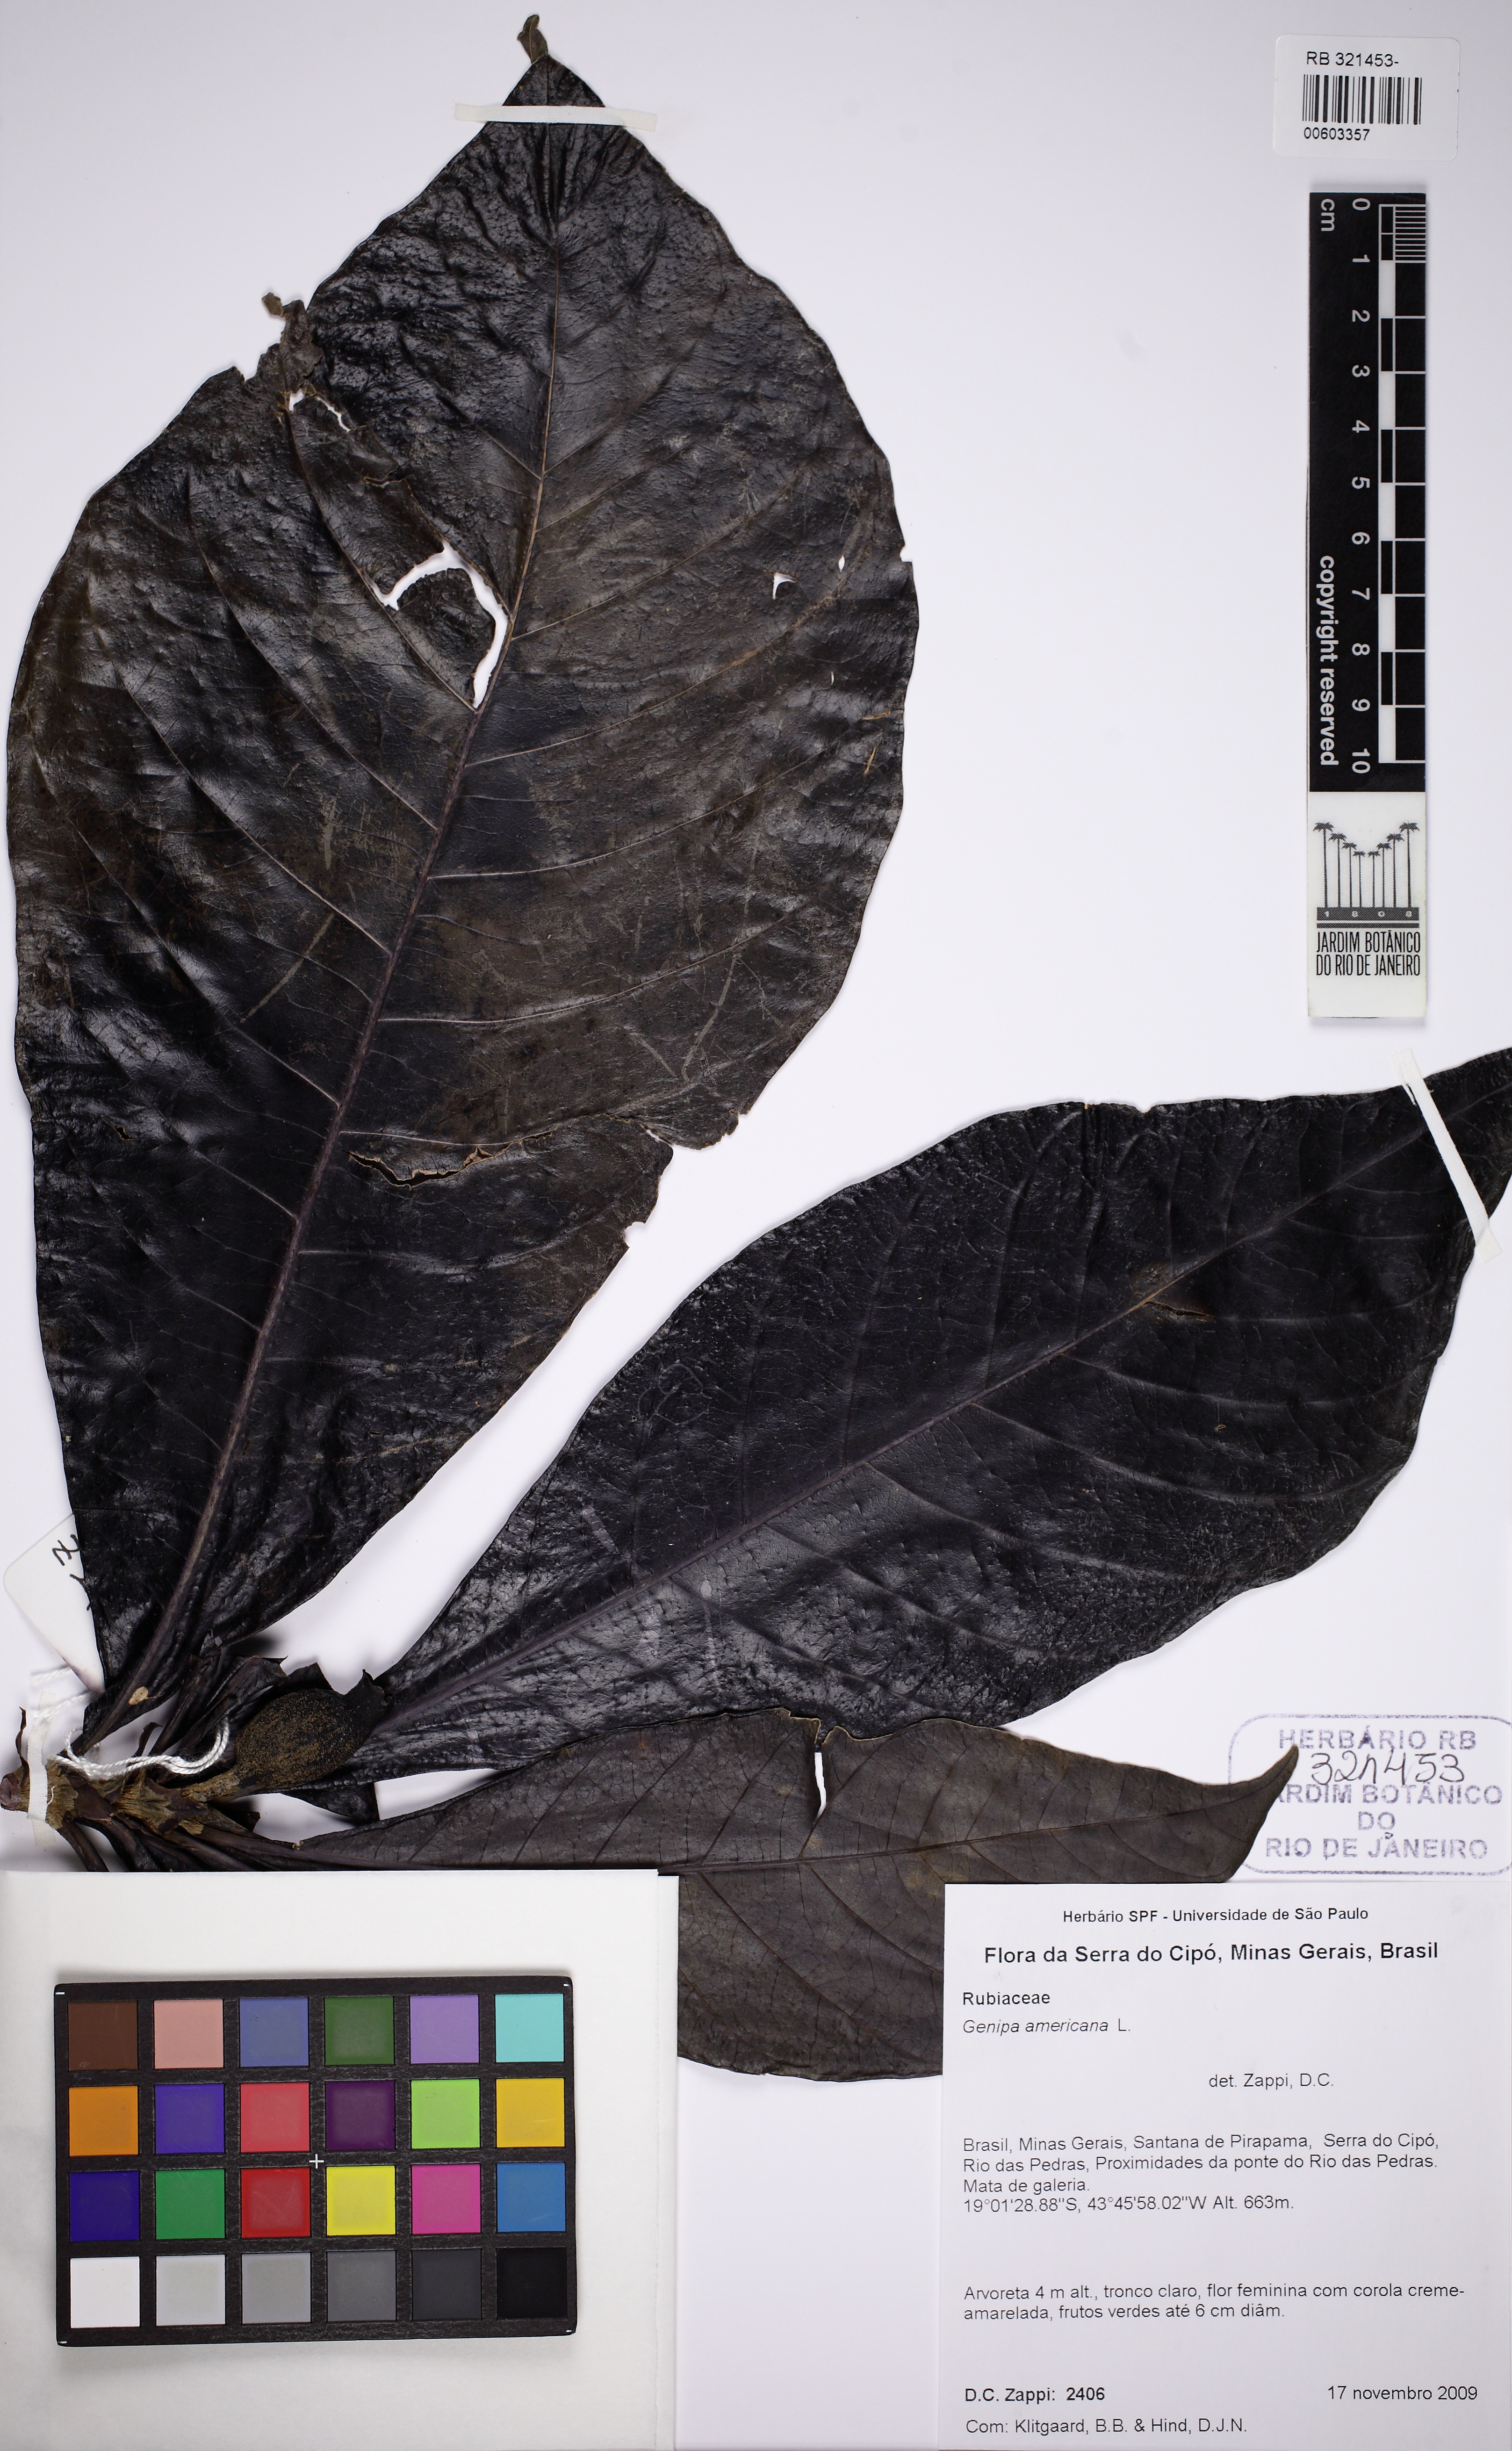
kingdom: Plantae
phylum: Tracheophyta
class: Magnoliopsida
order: Gentianales
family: Rubiaceae
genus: Genipa
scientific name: Genipa americana
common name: Genipap
